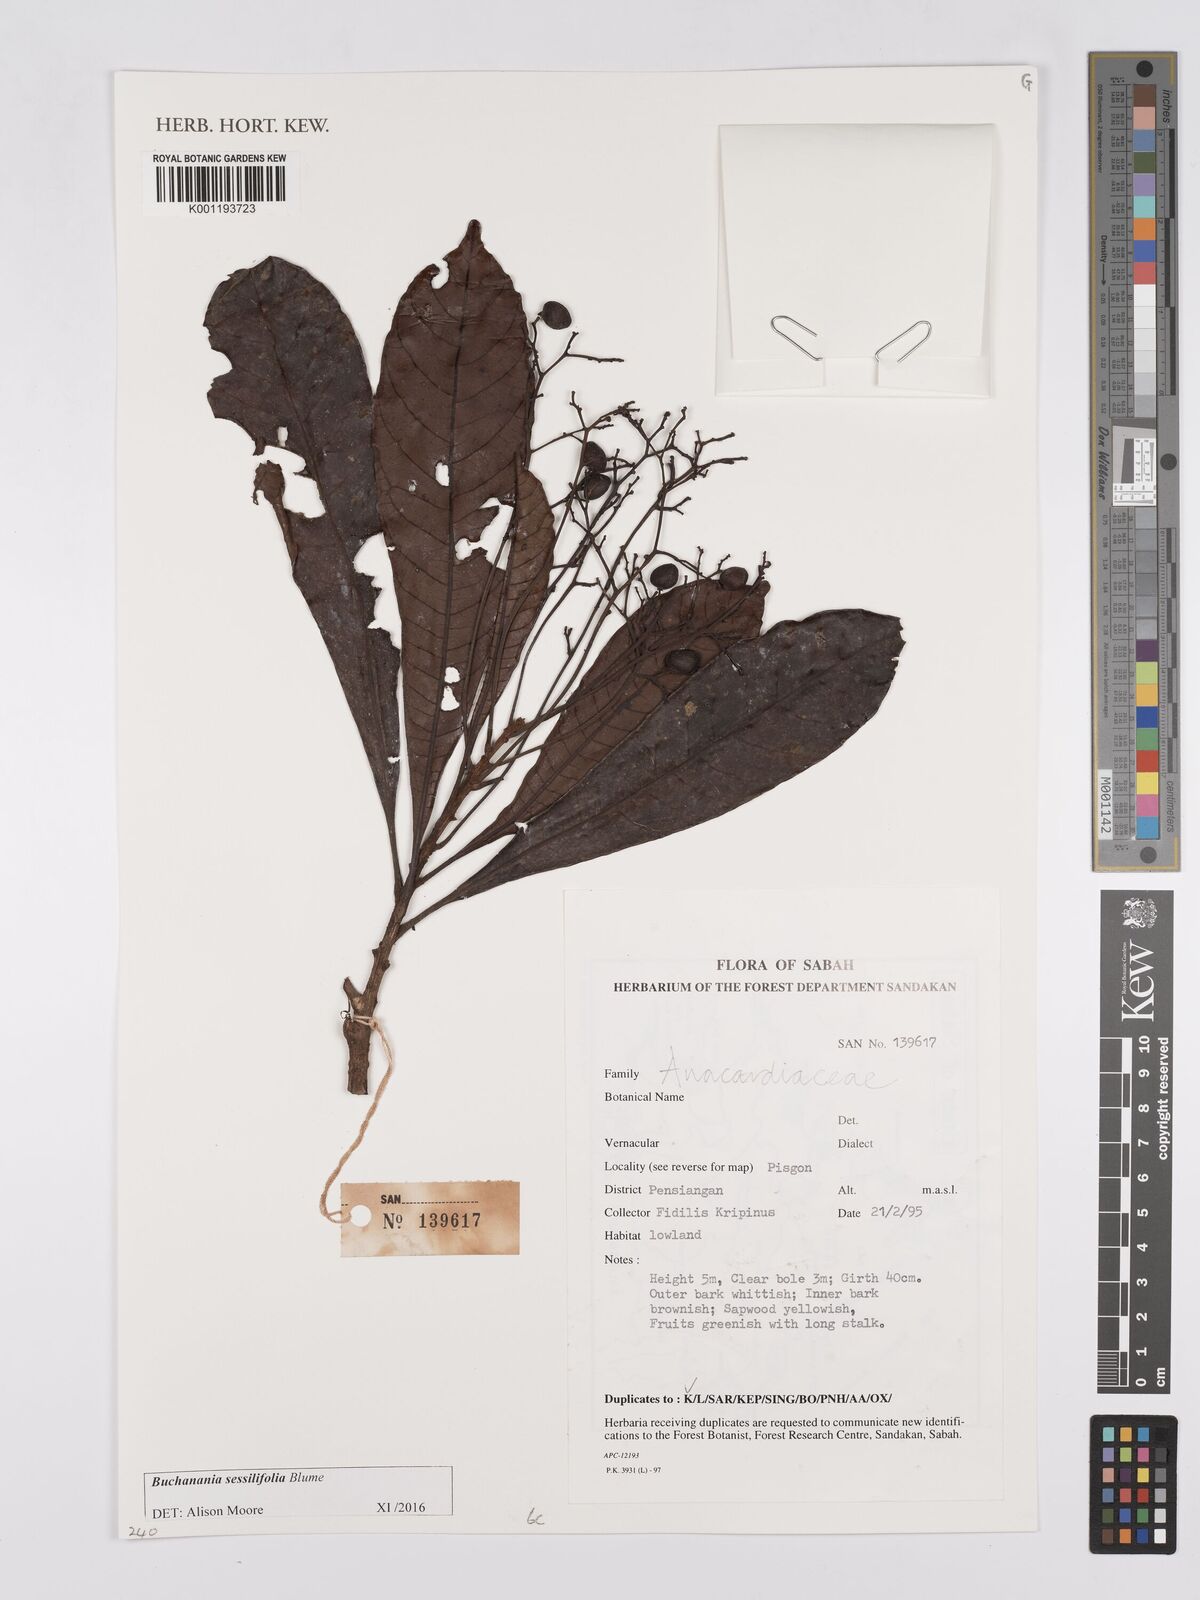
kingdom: Plantae
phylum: Tracheophyta
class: Magnoliopsida
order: Sapindales
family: Anacardiaceae
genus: Buchanania
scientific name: Buchanania sessifolia
